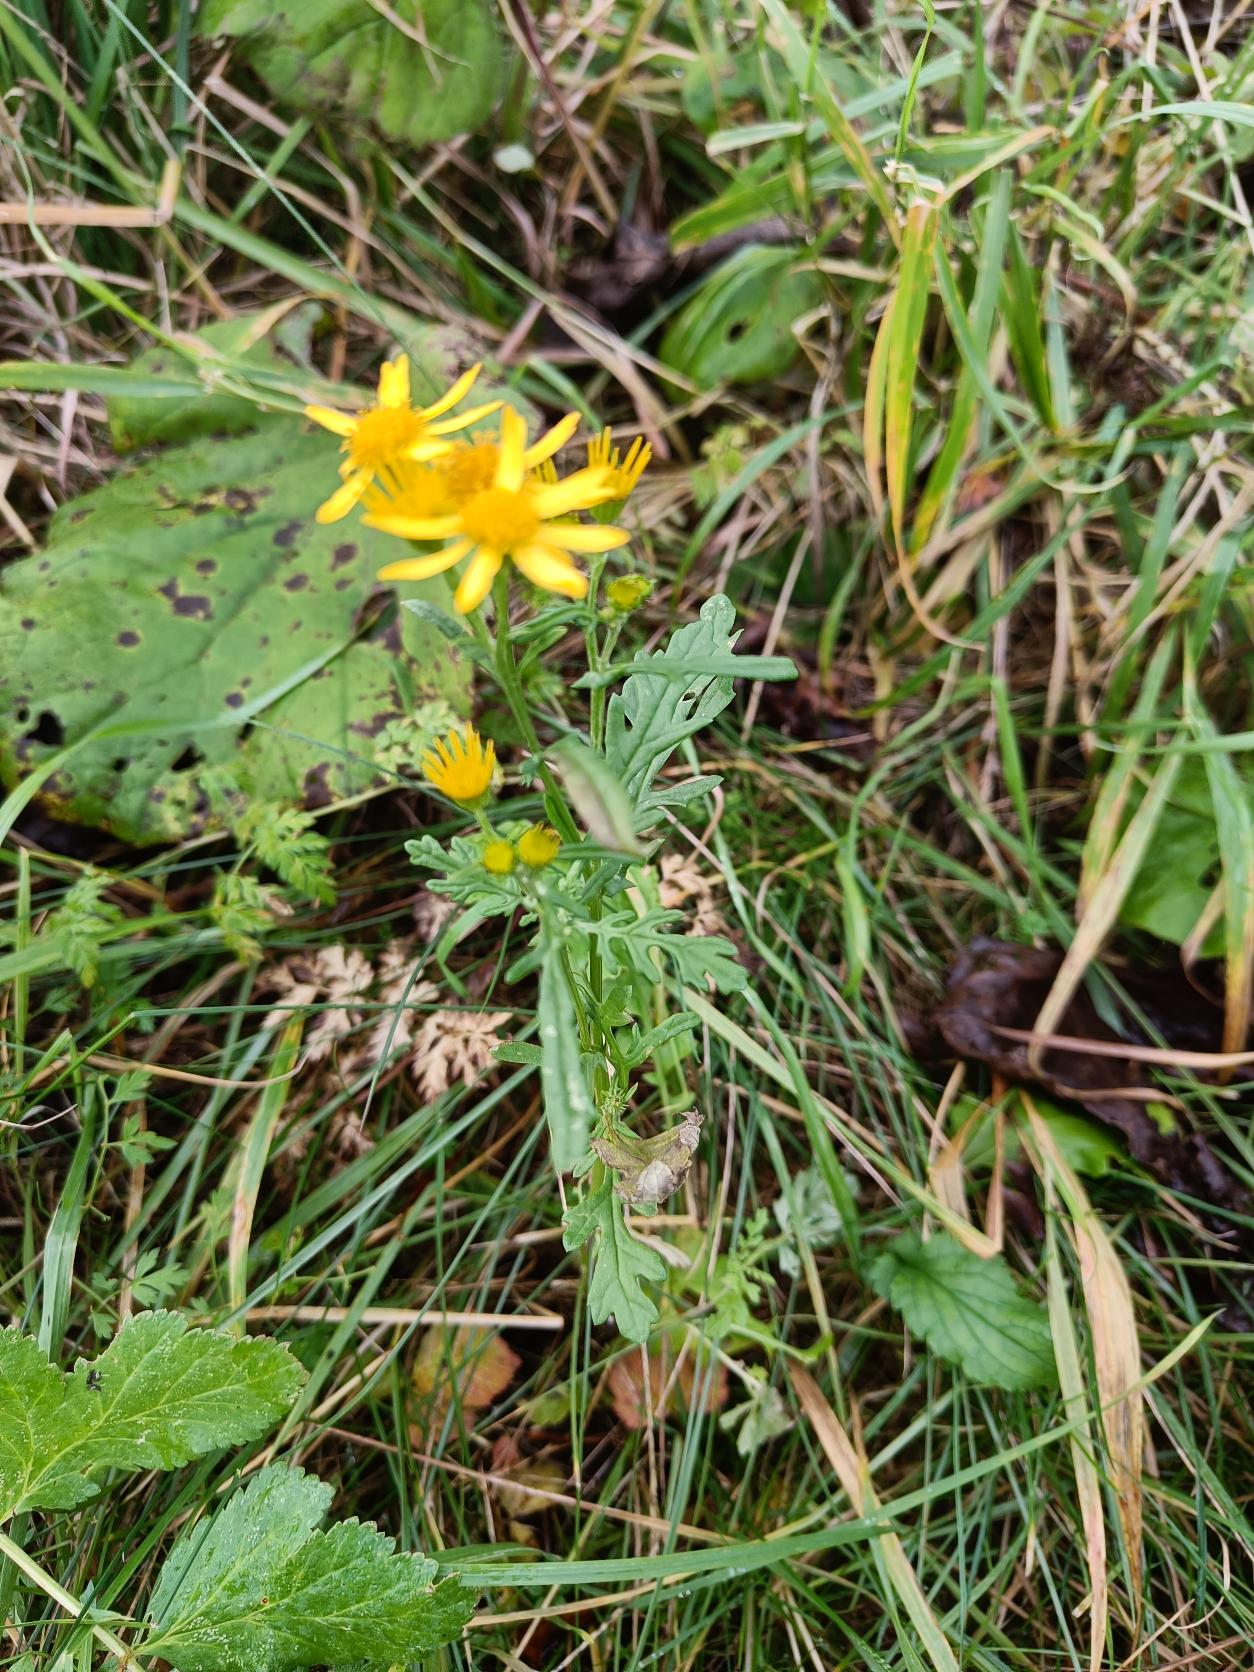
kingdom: Plantae
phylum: Tracheophyta
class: Magnoliopsida
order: Asterales
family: Asteraceae
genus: Jacobaea
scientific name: Jacobaea vulgaris
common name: Eng-brandbæger
